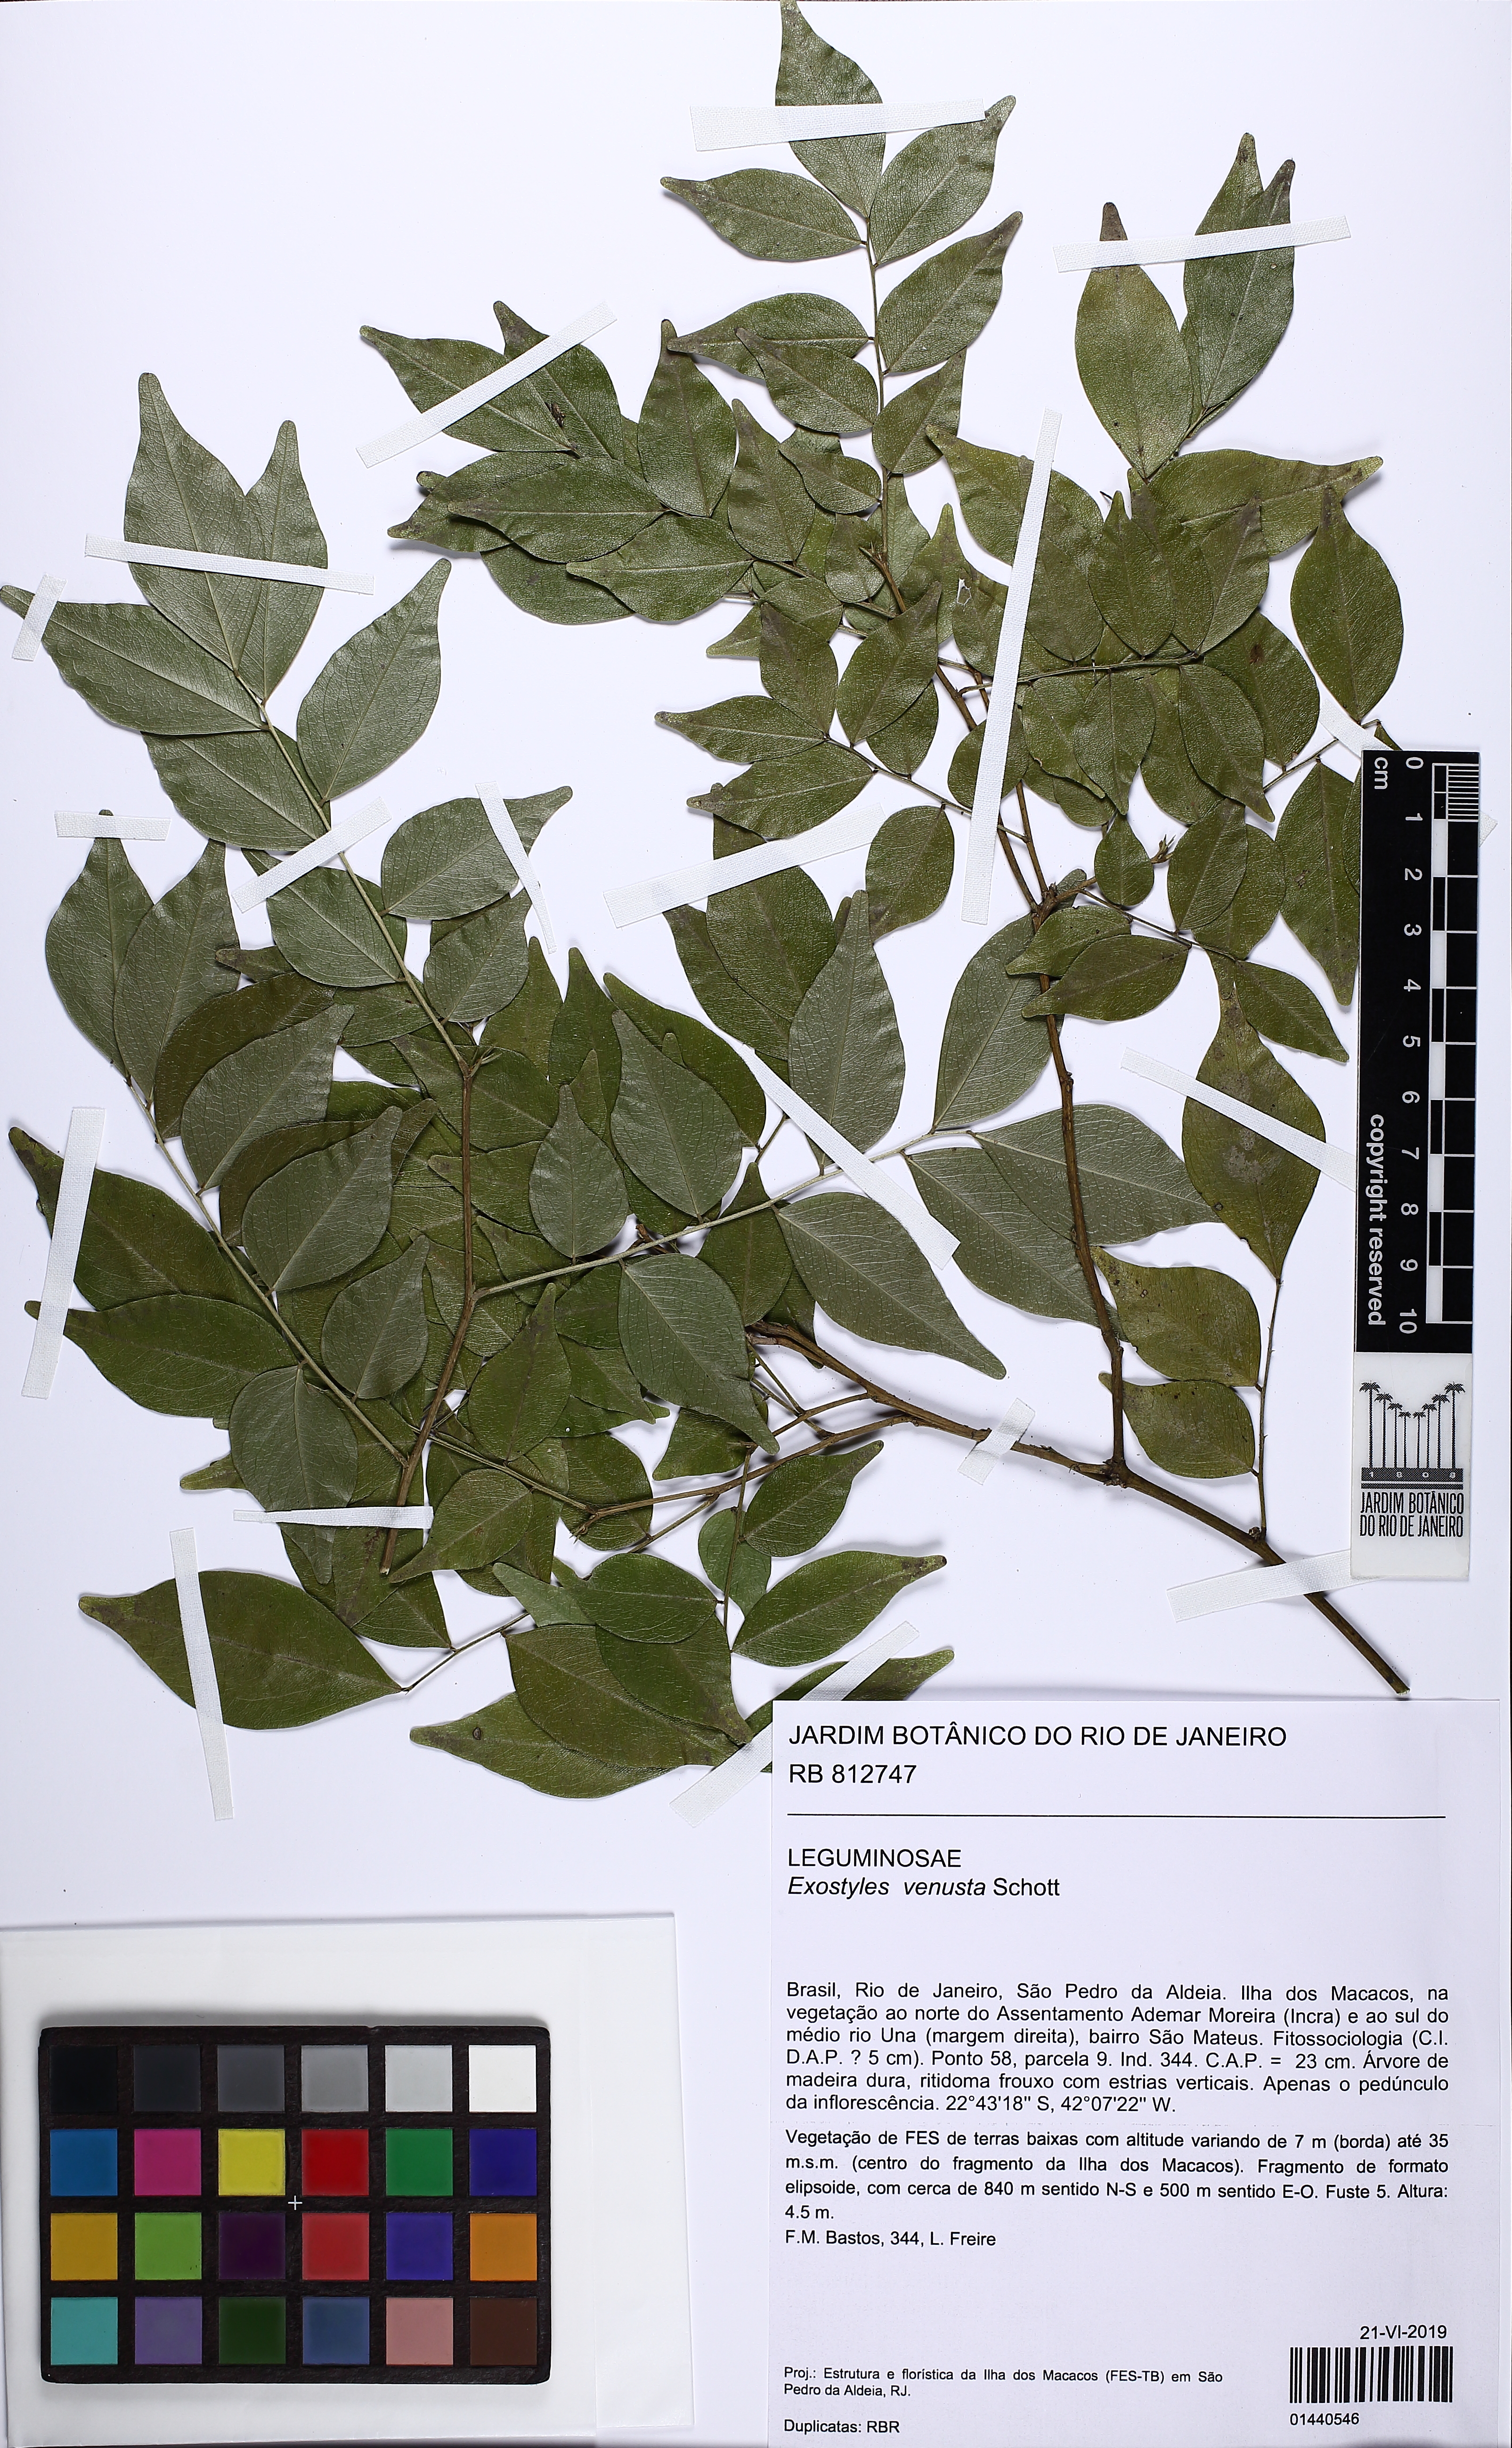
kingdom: Plantae
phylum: Tracheophyta
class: Magnoliopsida
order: Fabales
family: Fabaceae
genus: Exostyles
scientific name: Exostyles venusta
